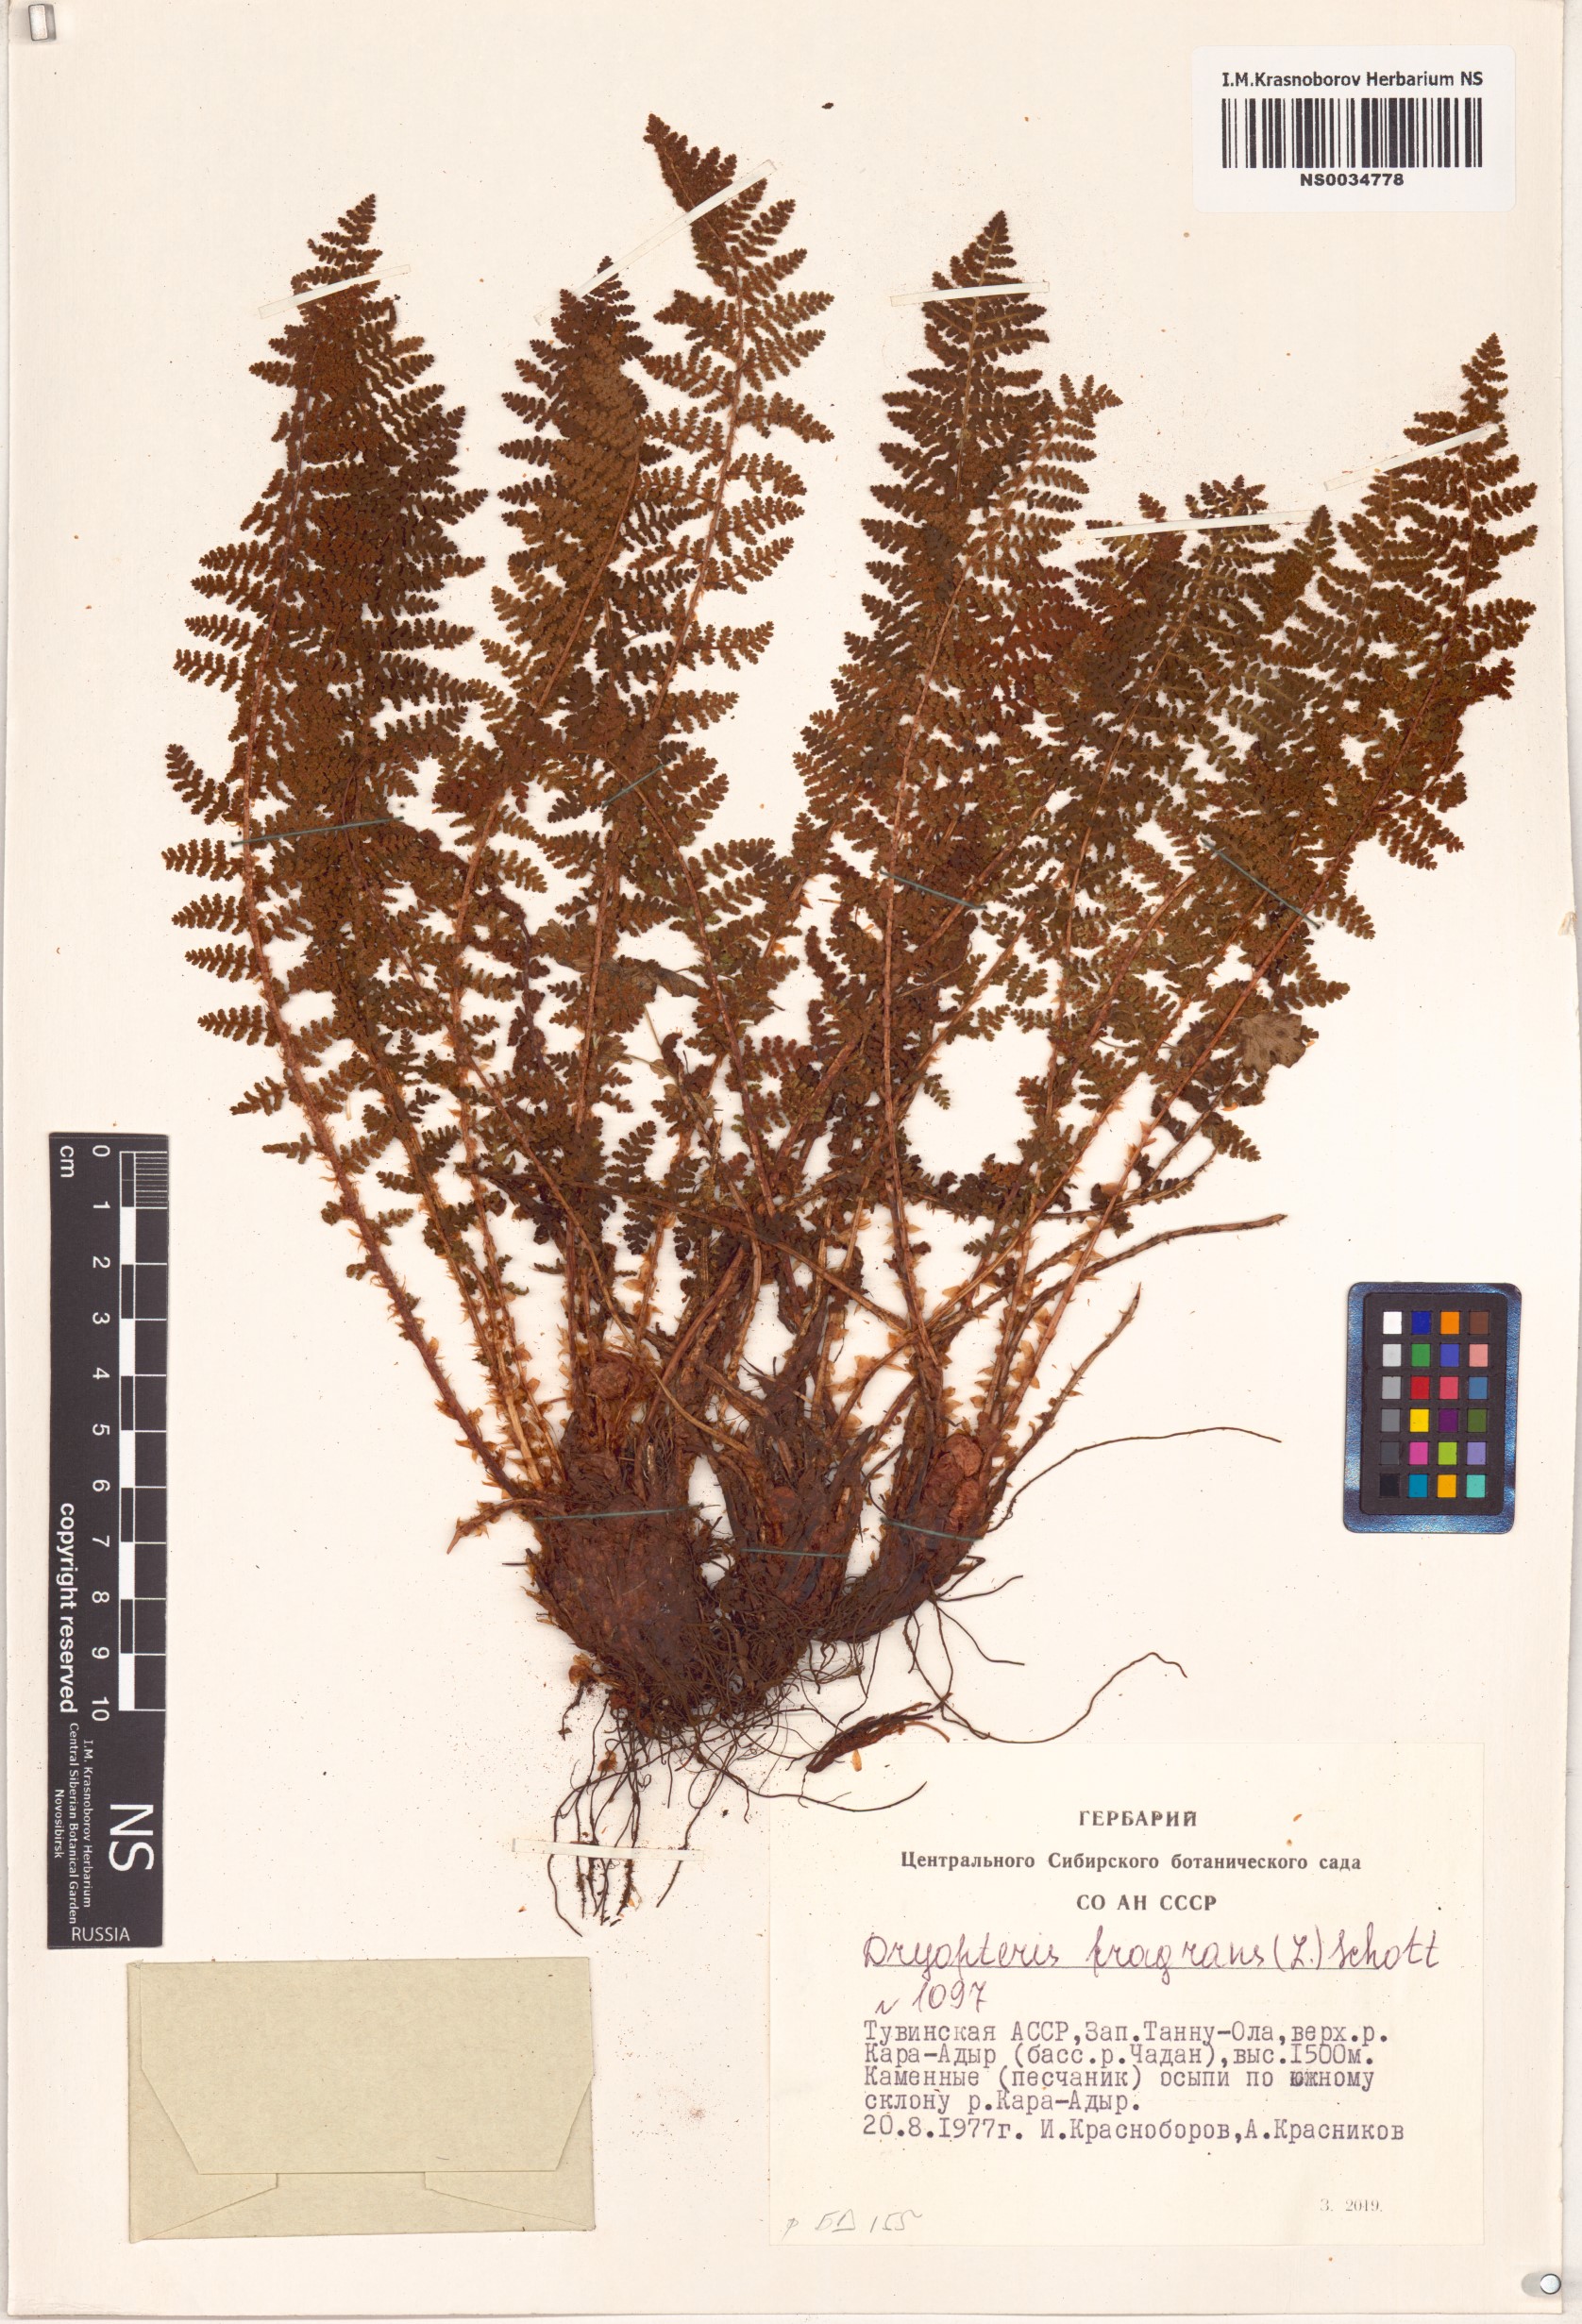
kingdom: Plantae
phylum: Tracheophyta
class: Polypodiopsida
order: Polypodiales
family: Dryopteridaceae
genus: Dryopteris
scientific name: Dryopteris fragrans
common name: Fragrant wood fern
